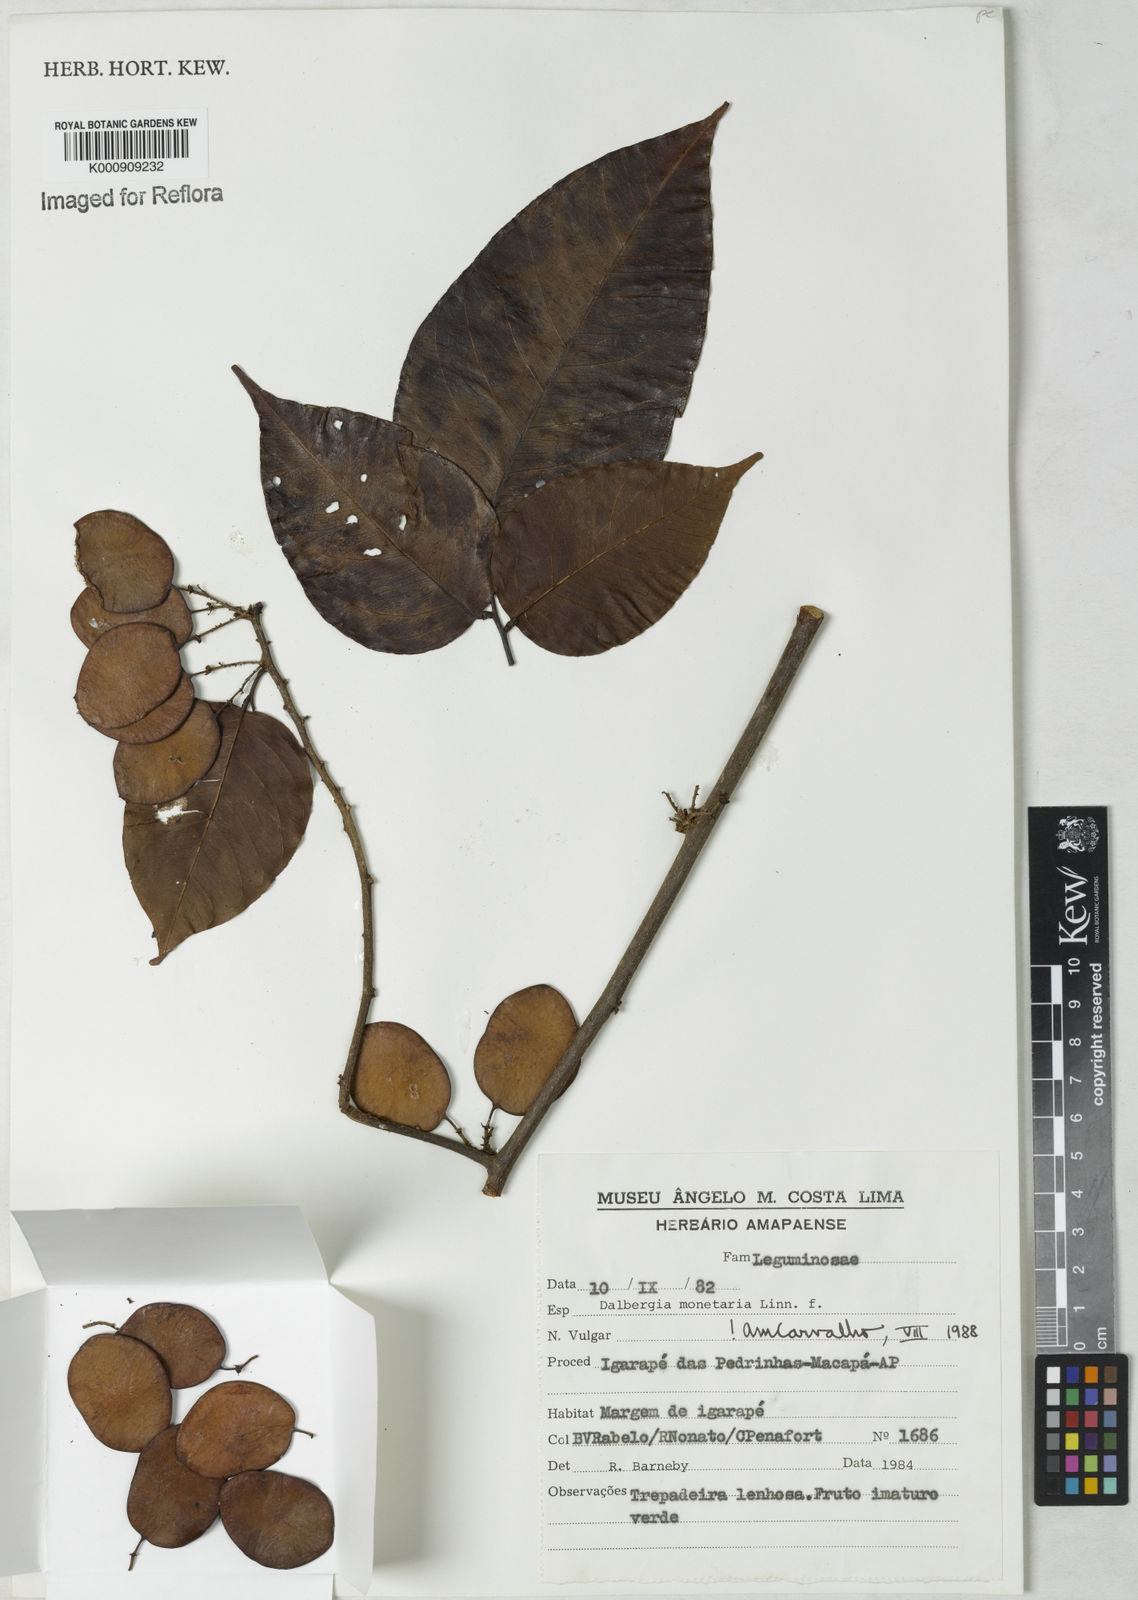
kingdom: Plantae
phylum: Tracheophyta
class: Magnoliopsida
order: Fabales
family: Fabaceae
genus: Dalbergia
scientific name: Dalbergia ovalis
